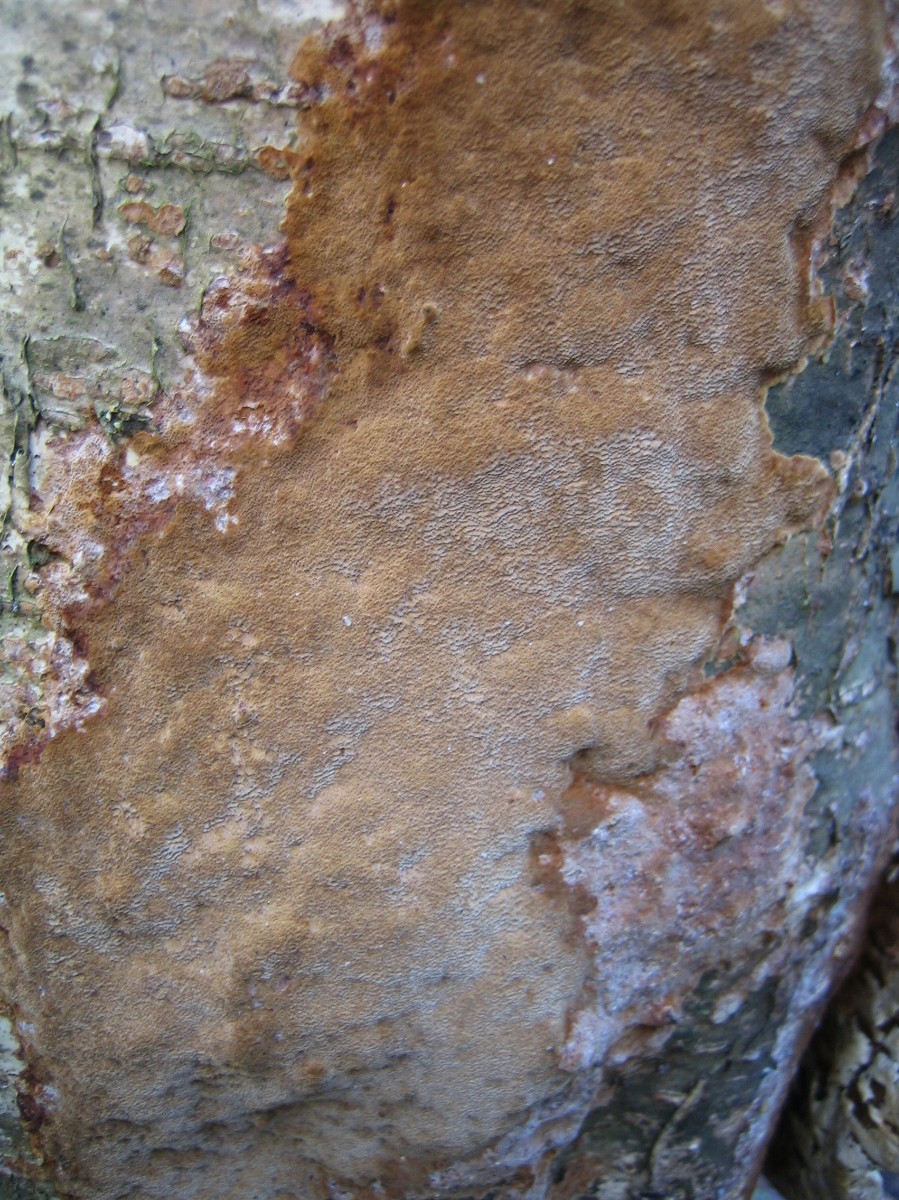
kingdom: Fungi
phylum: Basidiomycota
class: Agaricomycetes
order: Hymenochaetales
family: Hymenochaetaceae
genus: Fuscoporia
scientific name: Fuscoporia ferrea
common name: skorpe-ildporesvamp
